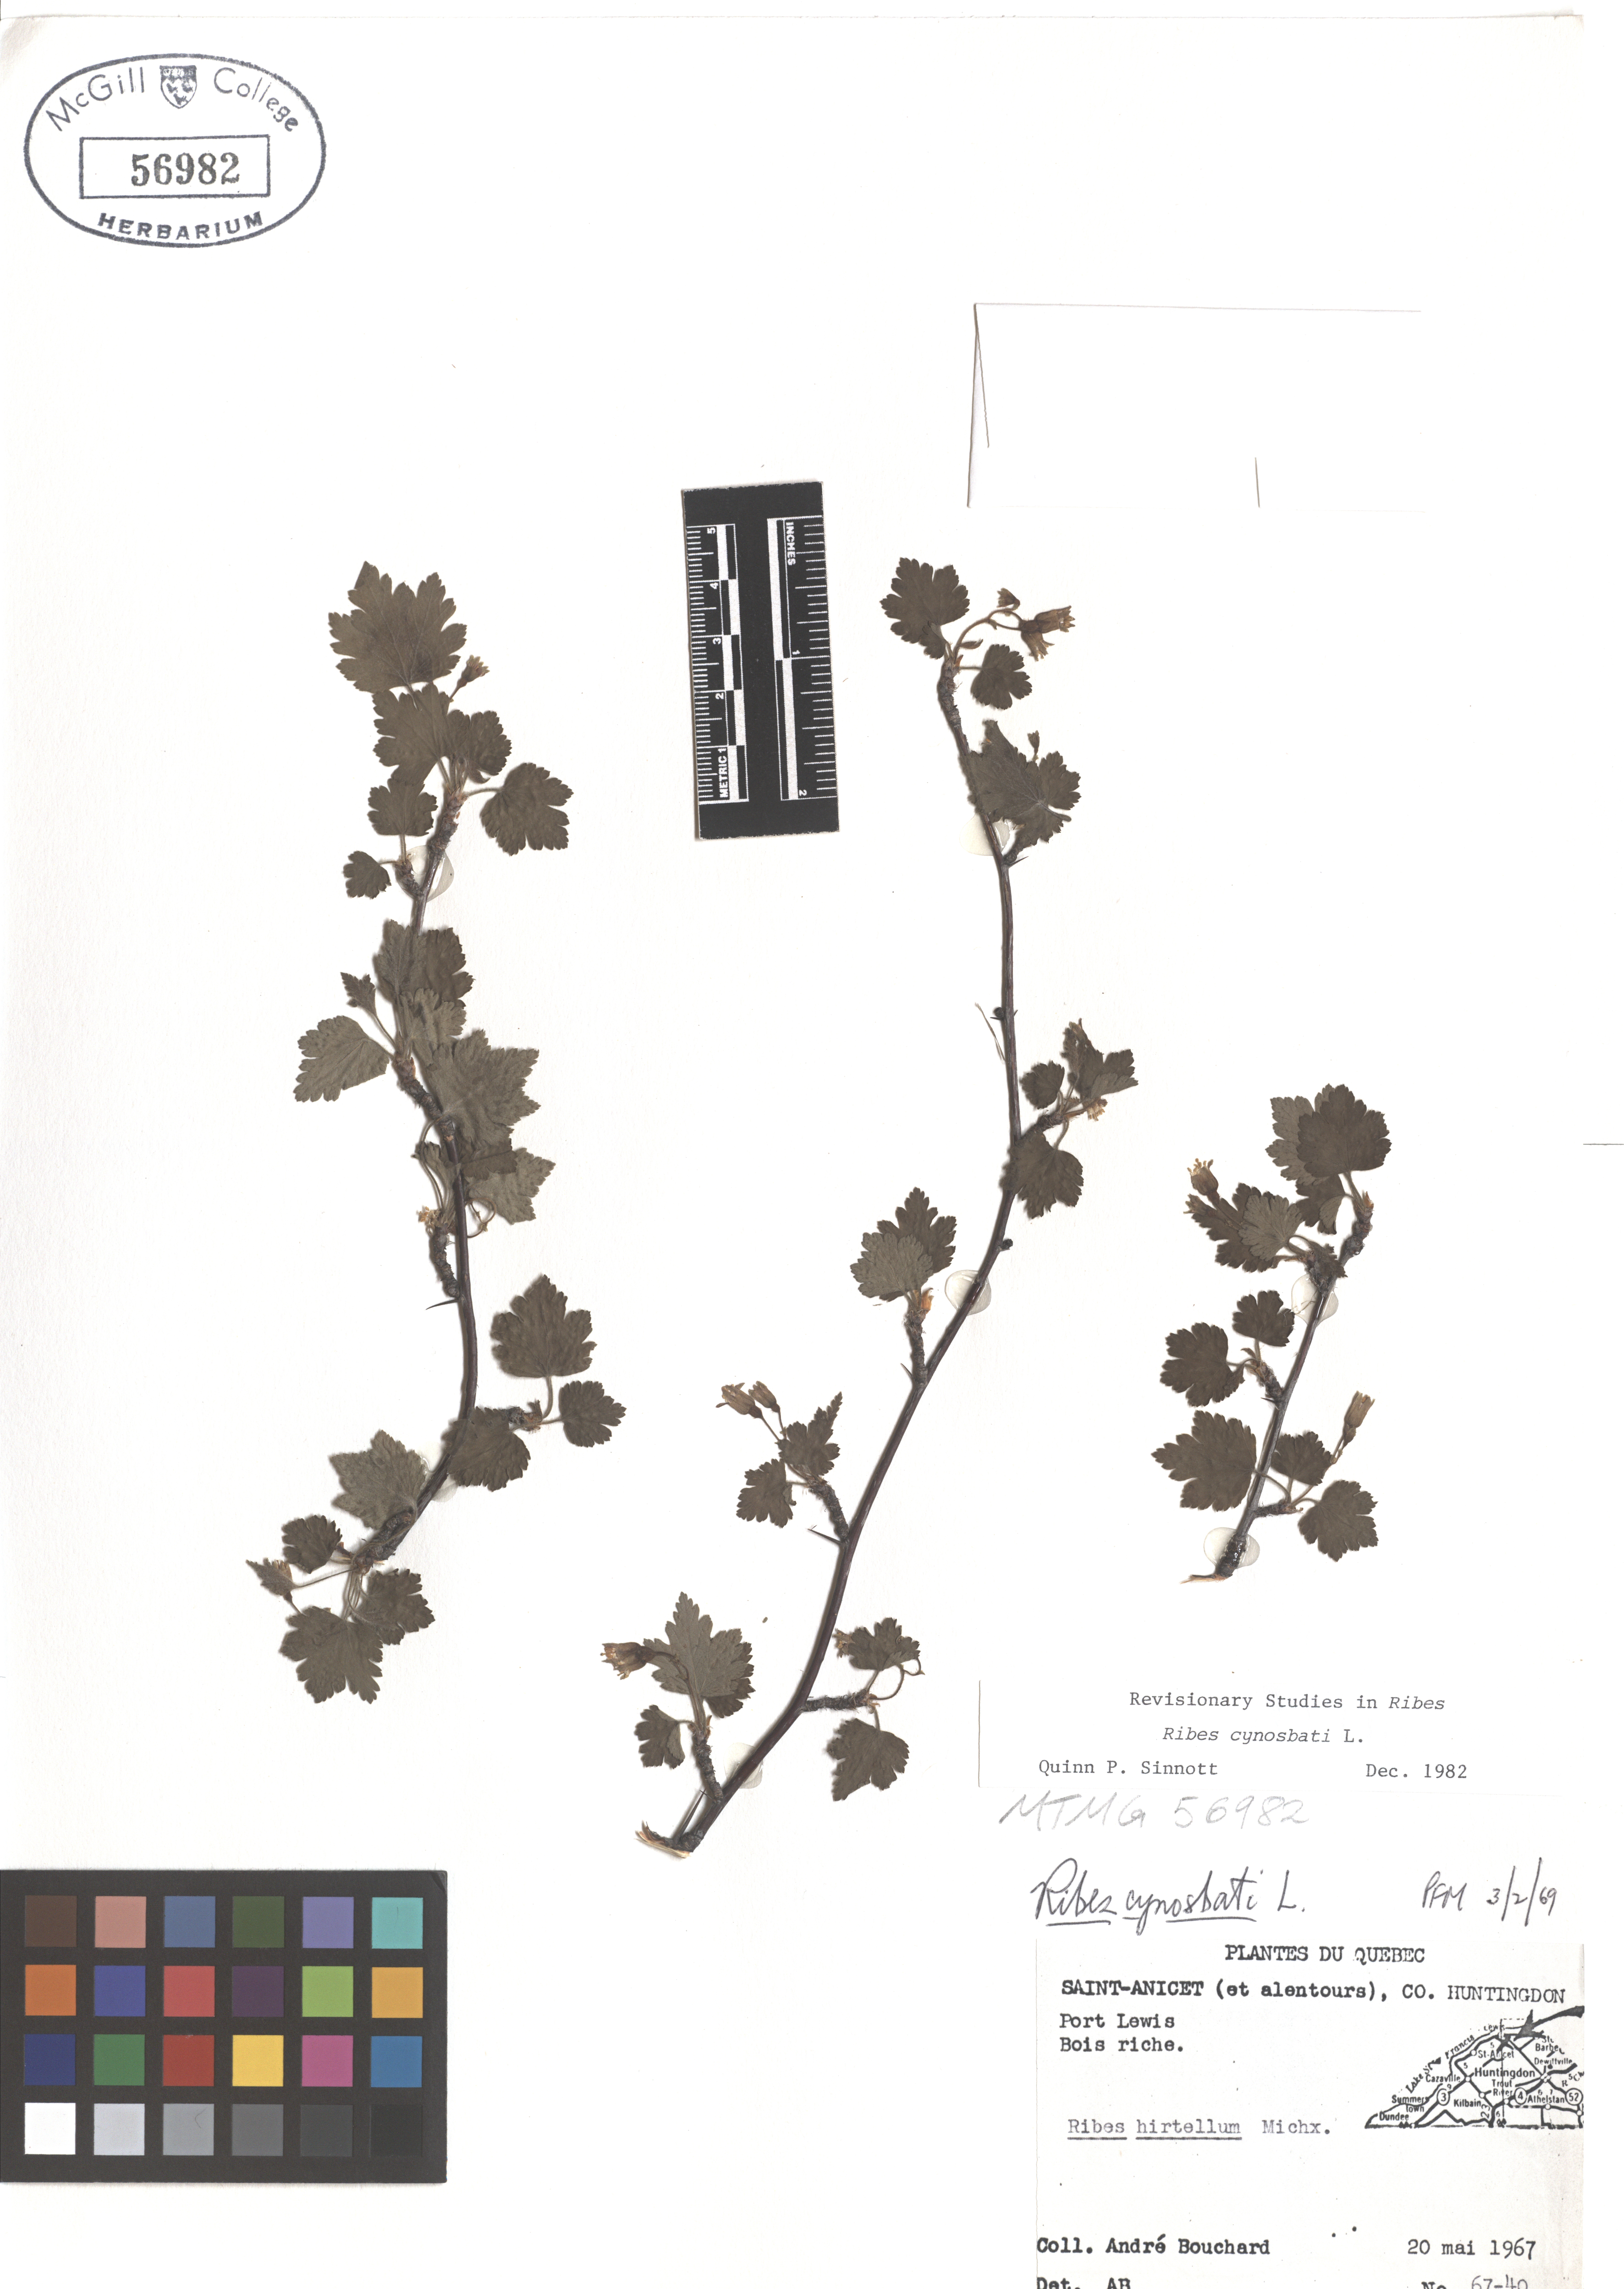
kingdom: Plantae
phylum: Tracheophyta
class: Magnoliopsida
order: Saxifragales
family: Grossulariaceae
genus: Ribes
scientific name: Ribes cynosbati
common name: American gooseberry
